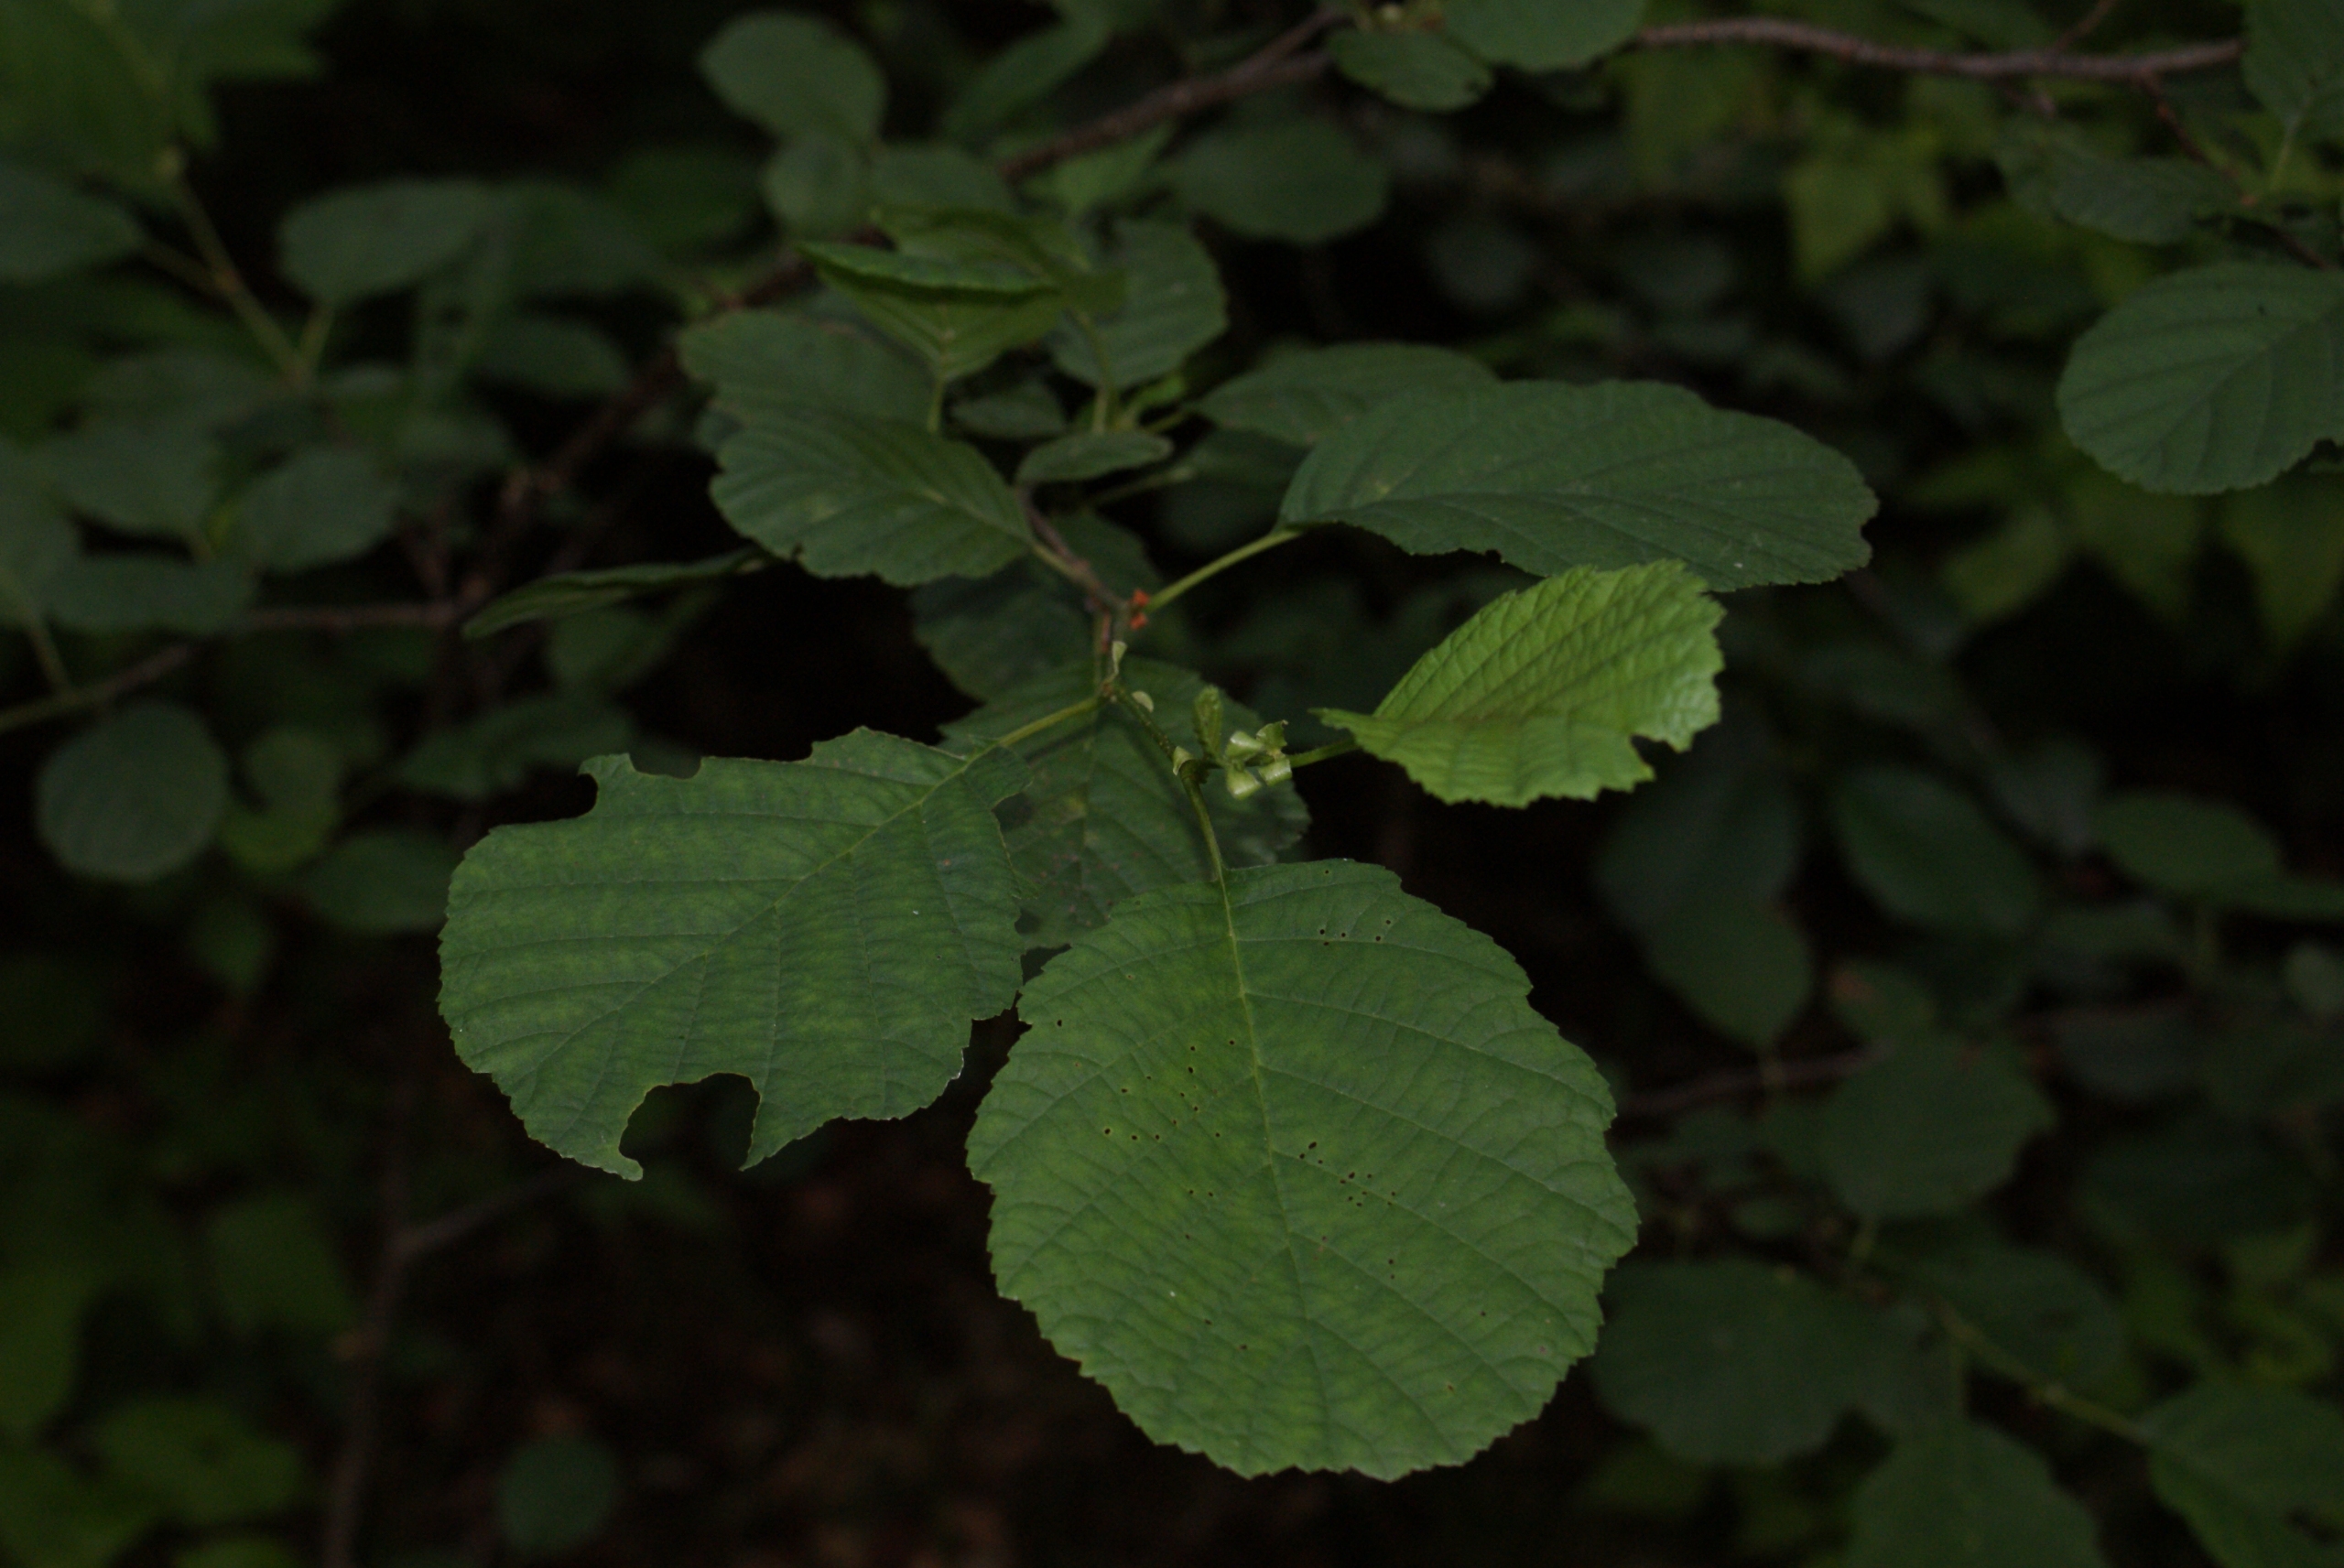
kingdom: Plantae
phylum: Tracheophyta
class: Magnoliopsida
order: Fagales
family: Betulaceae
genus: Alnus
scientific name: Alnus glutinosa
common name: Rød-el
